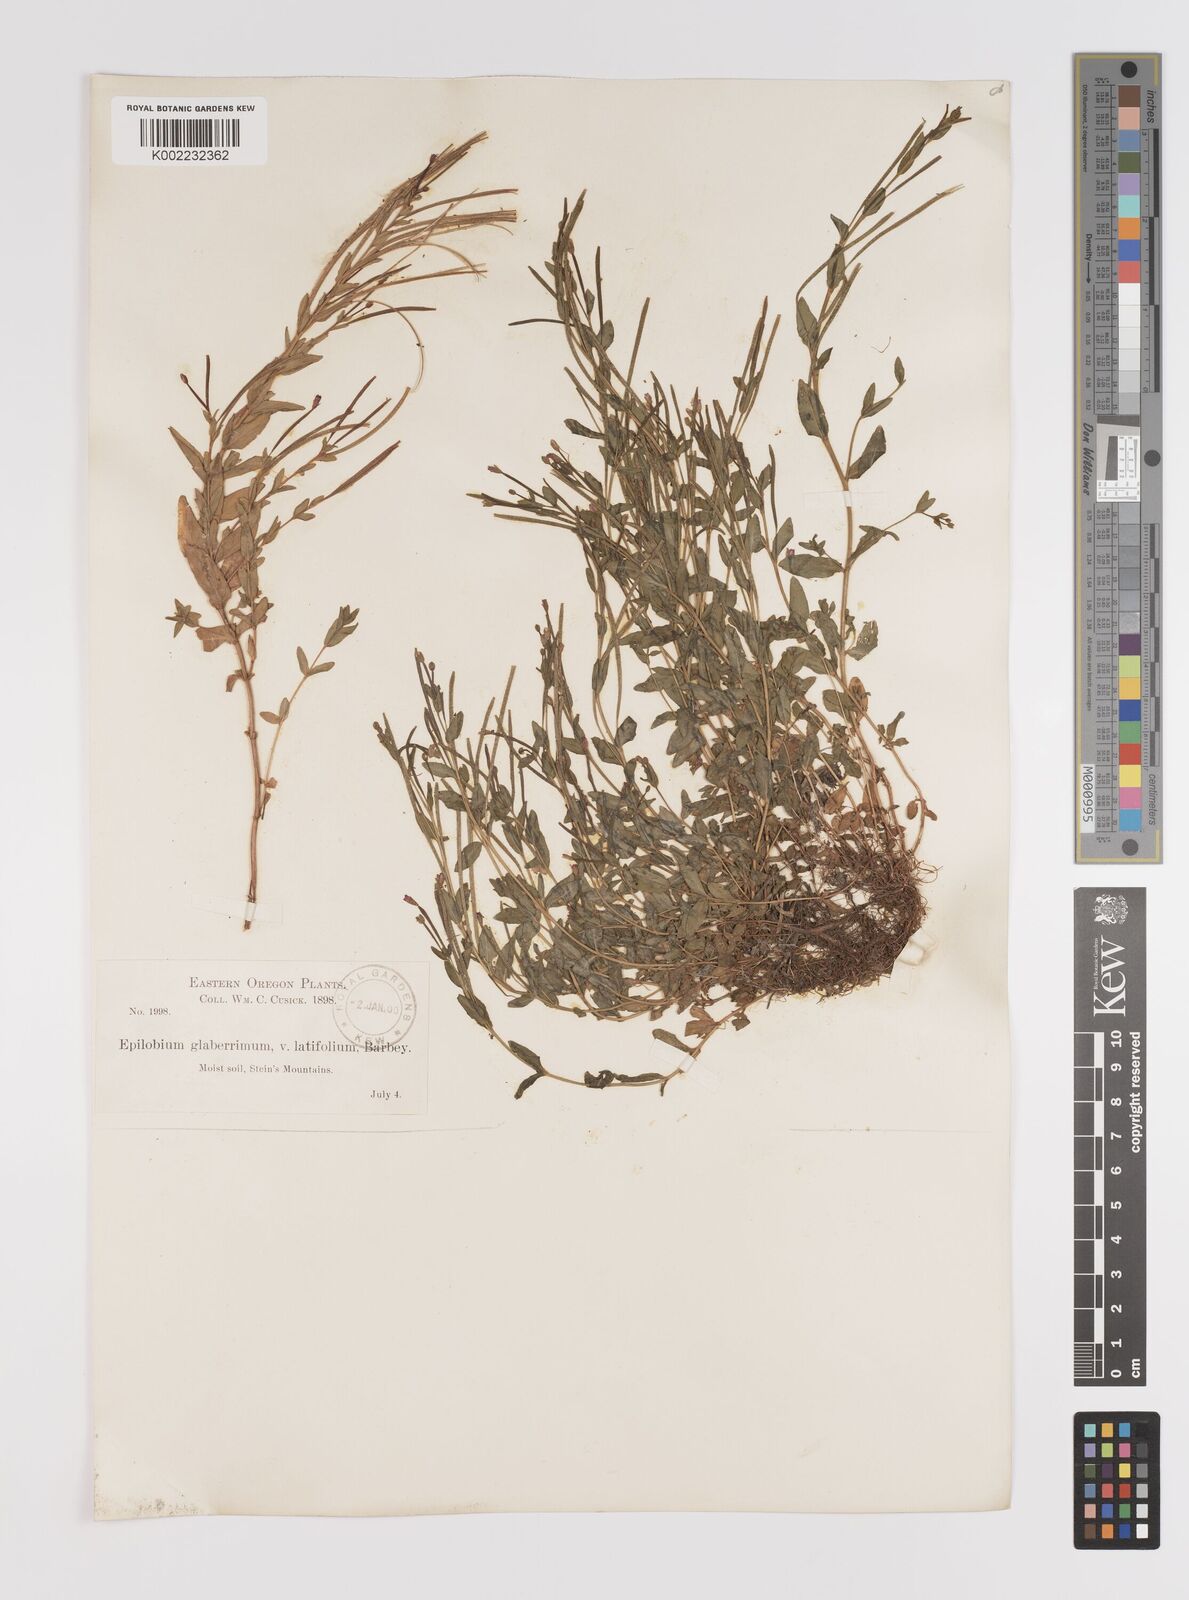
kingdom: Plantae
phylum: Tracheophyta
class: Magnoliopsida
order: Myrtales
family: Onagraceae
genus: Epilobium
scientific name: Epilobium glaberrimum
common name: Glaucous willowherb
